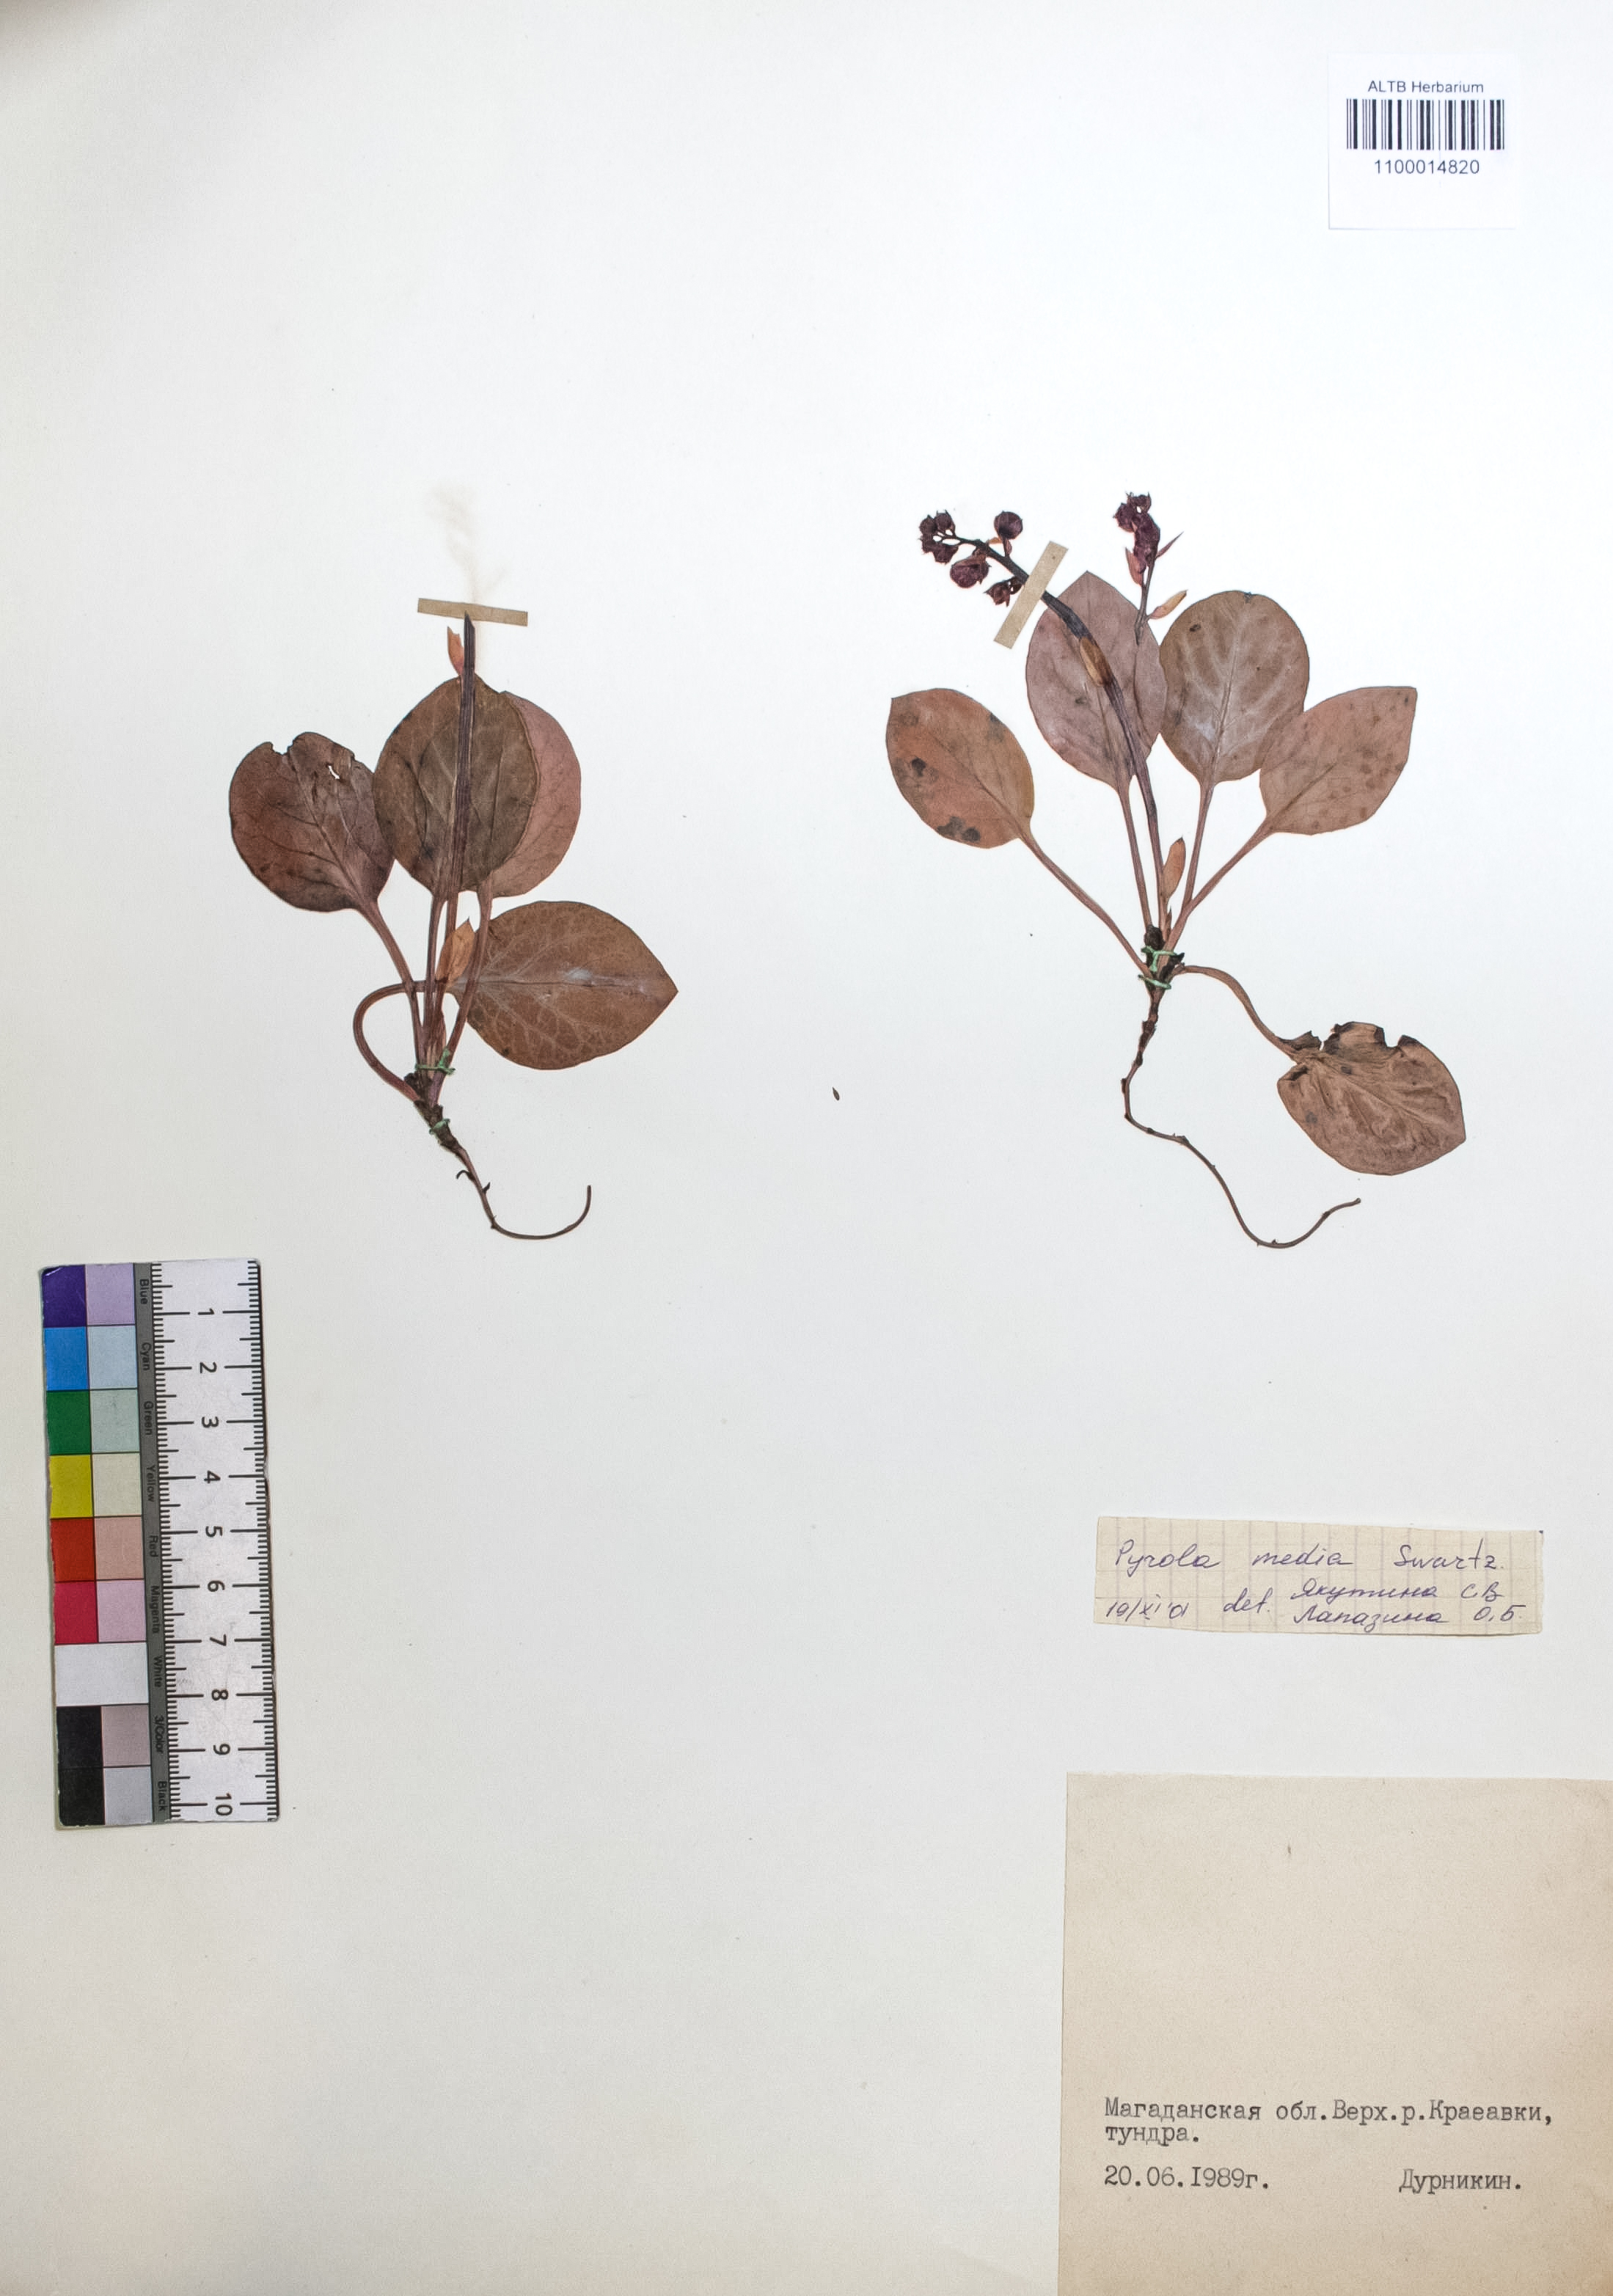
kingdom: Plantae
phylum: Tracheophyta
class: Magnoliopsida
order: Ericales
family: Ericaceae
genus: Pyrola
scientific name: Pyrola media
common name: Intermediate wintergreen
